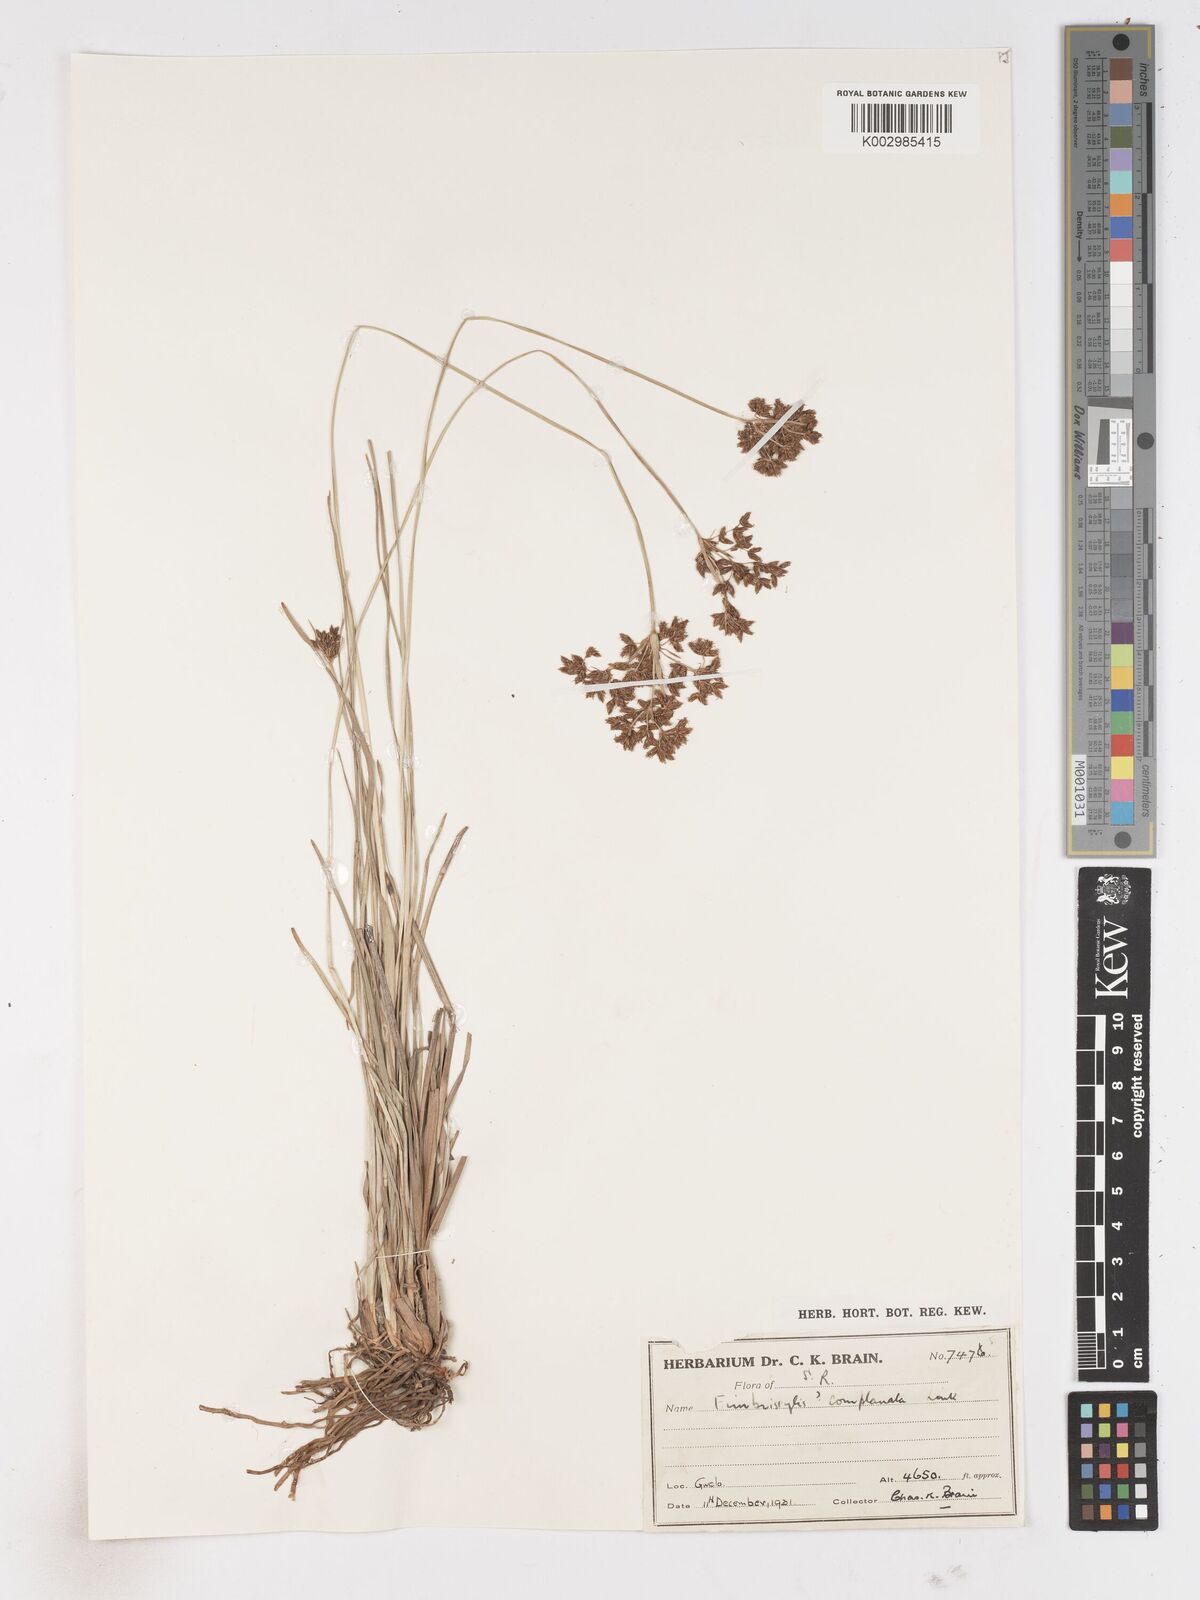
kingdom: Plantae
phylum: Tracheophyta
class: Liliopsida
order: Poales
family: Cyperaceae
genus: Fimbristylis
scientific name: Fimbristylis
